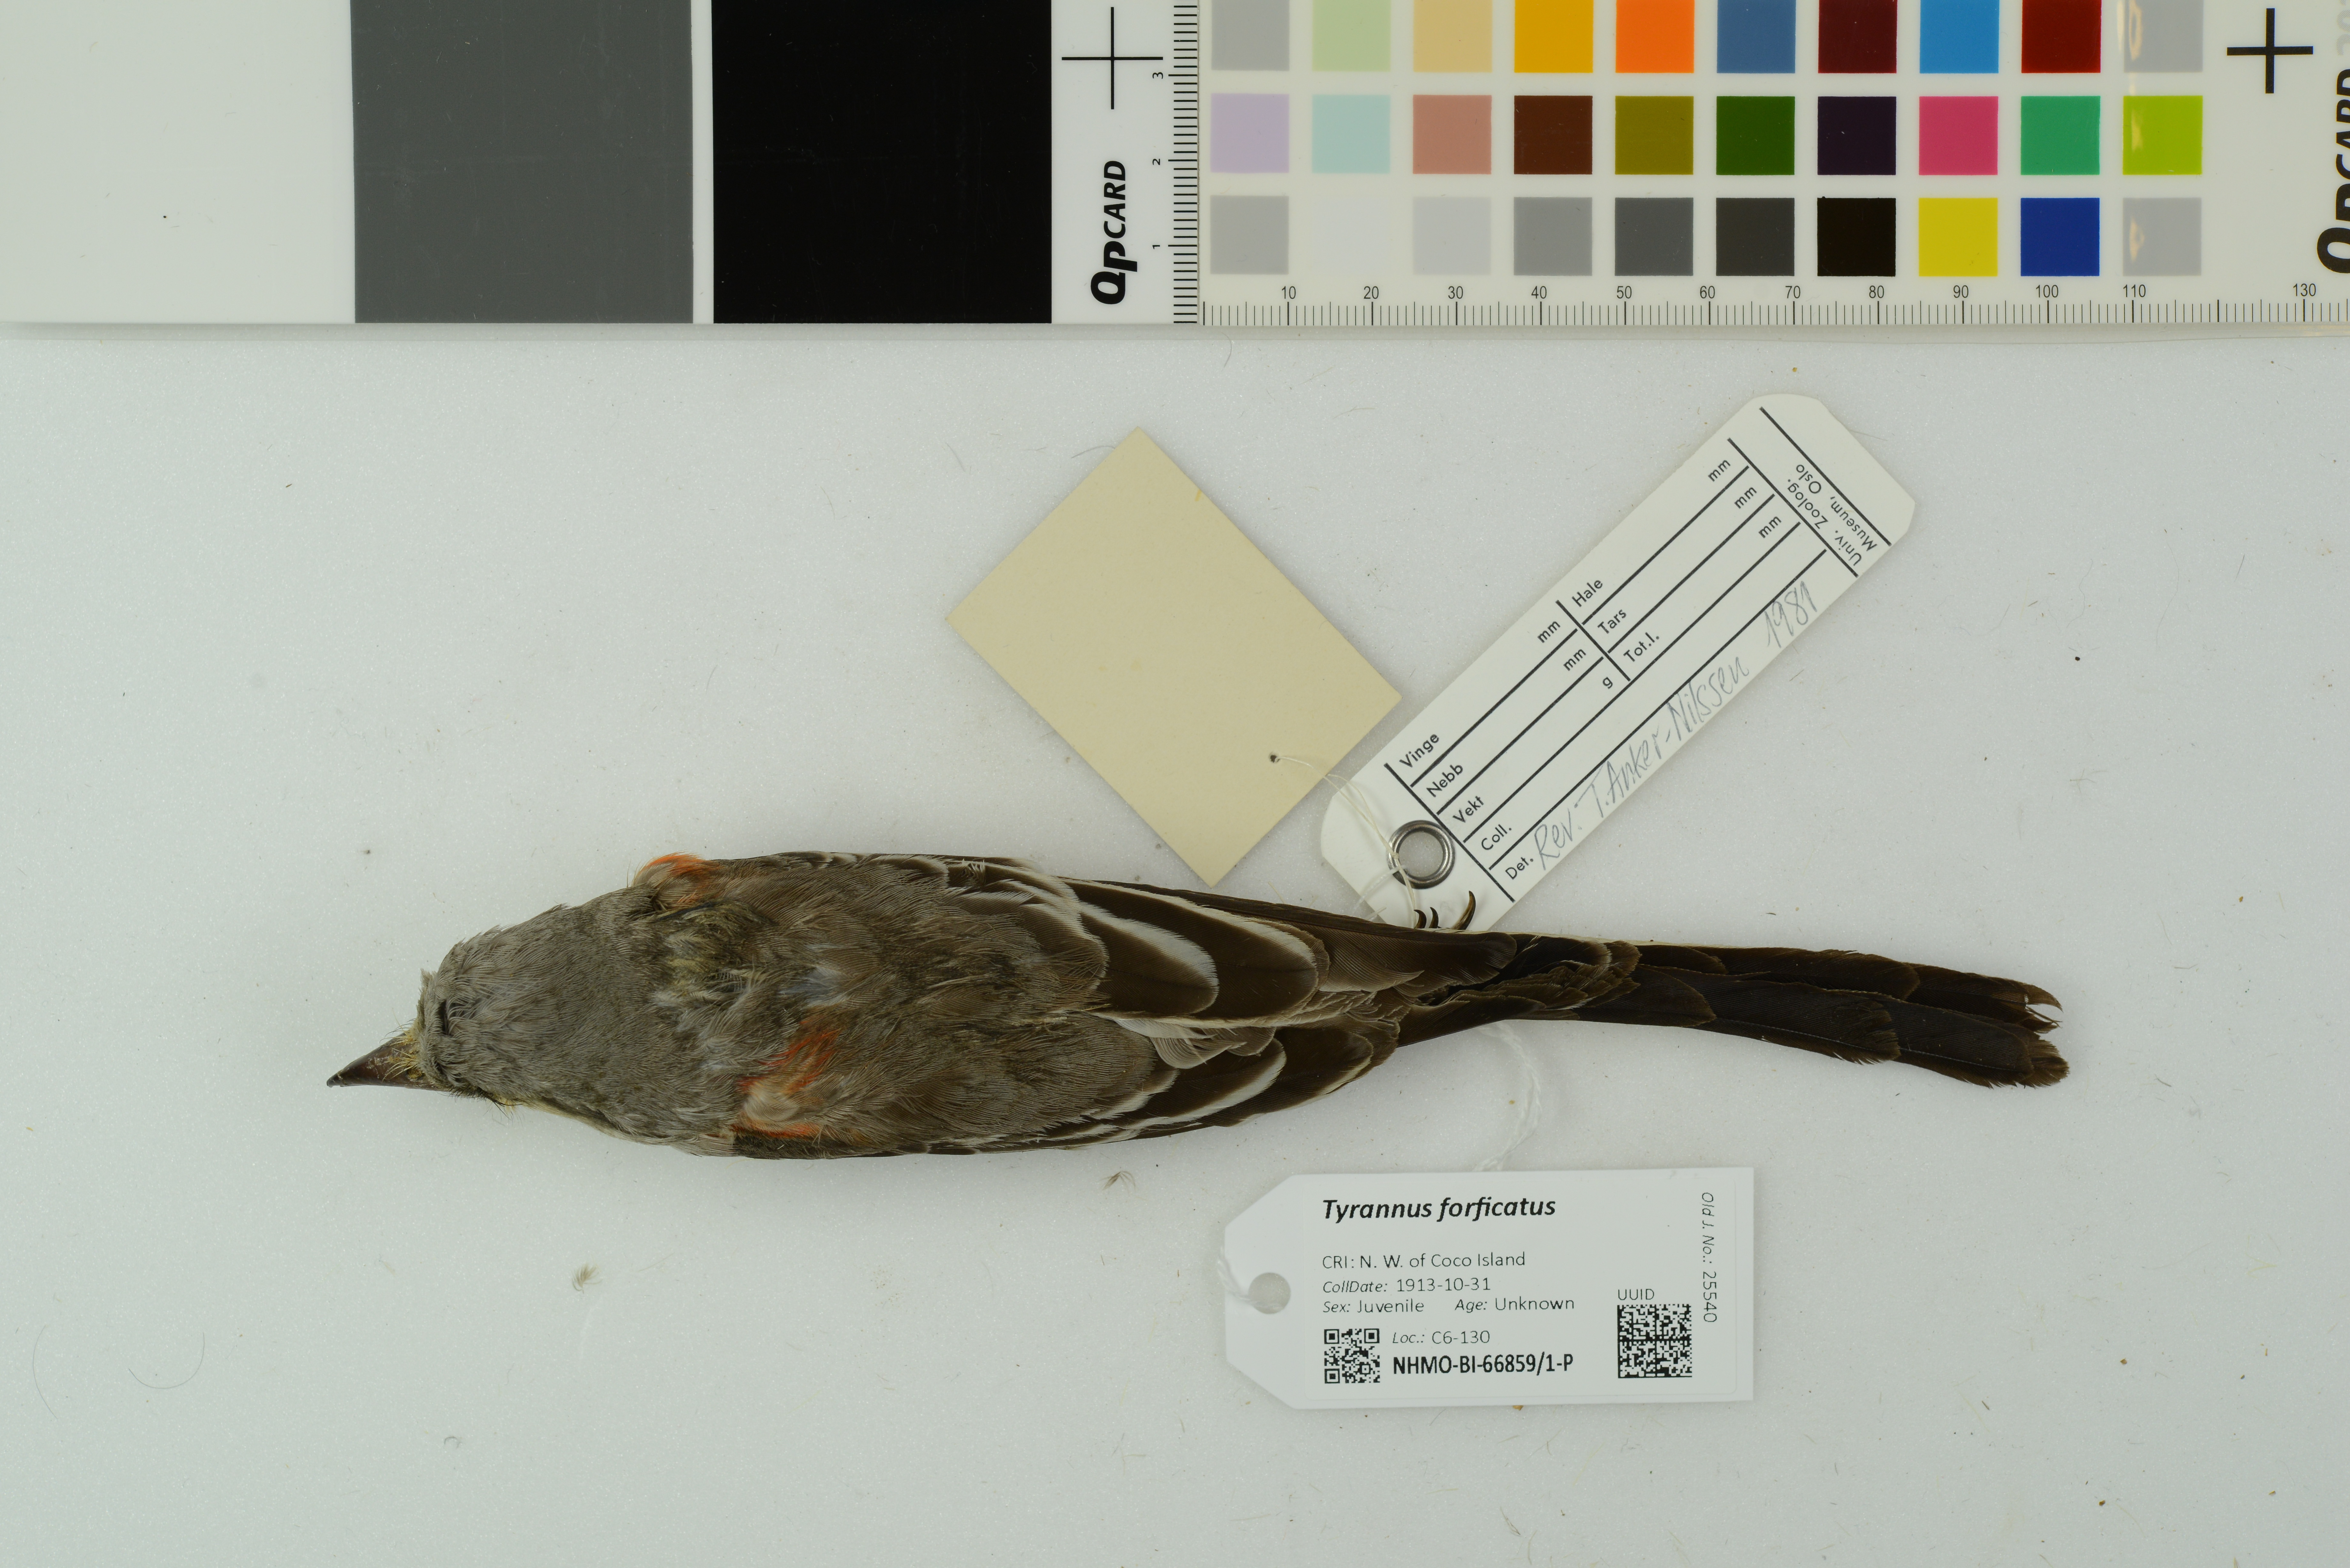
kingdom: Animalia
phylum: Chordata
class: Aves
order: Passeriformes
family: Tyrannidae
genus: Tyrannus
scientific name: Tyrannus forficatus
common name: Scissor-tailed flycatcher
